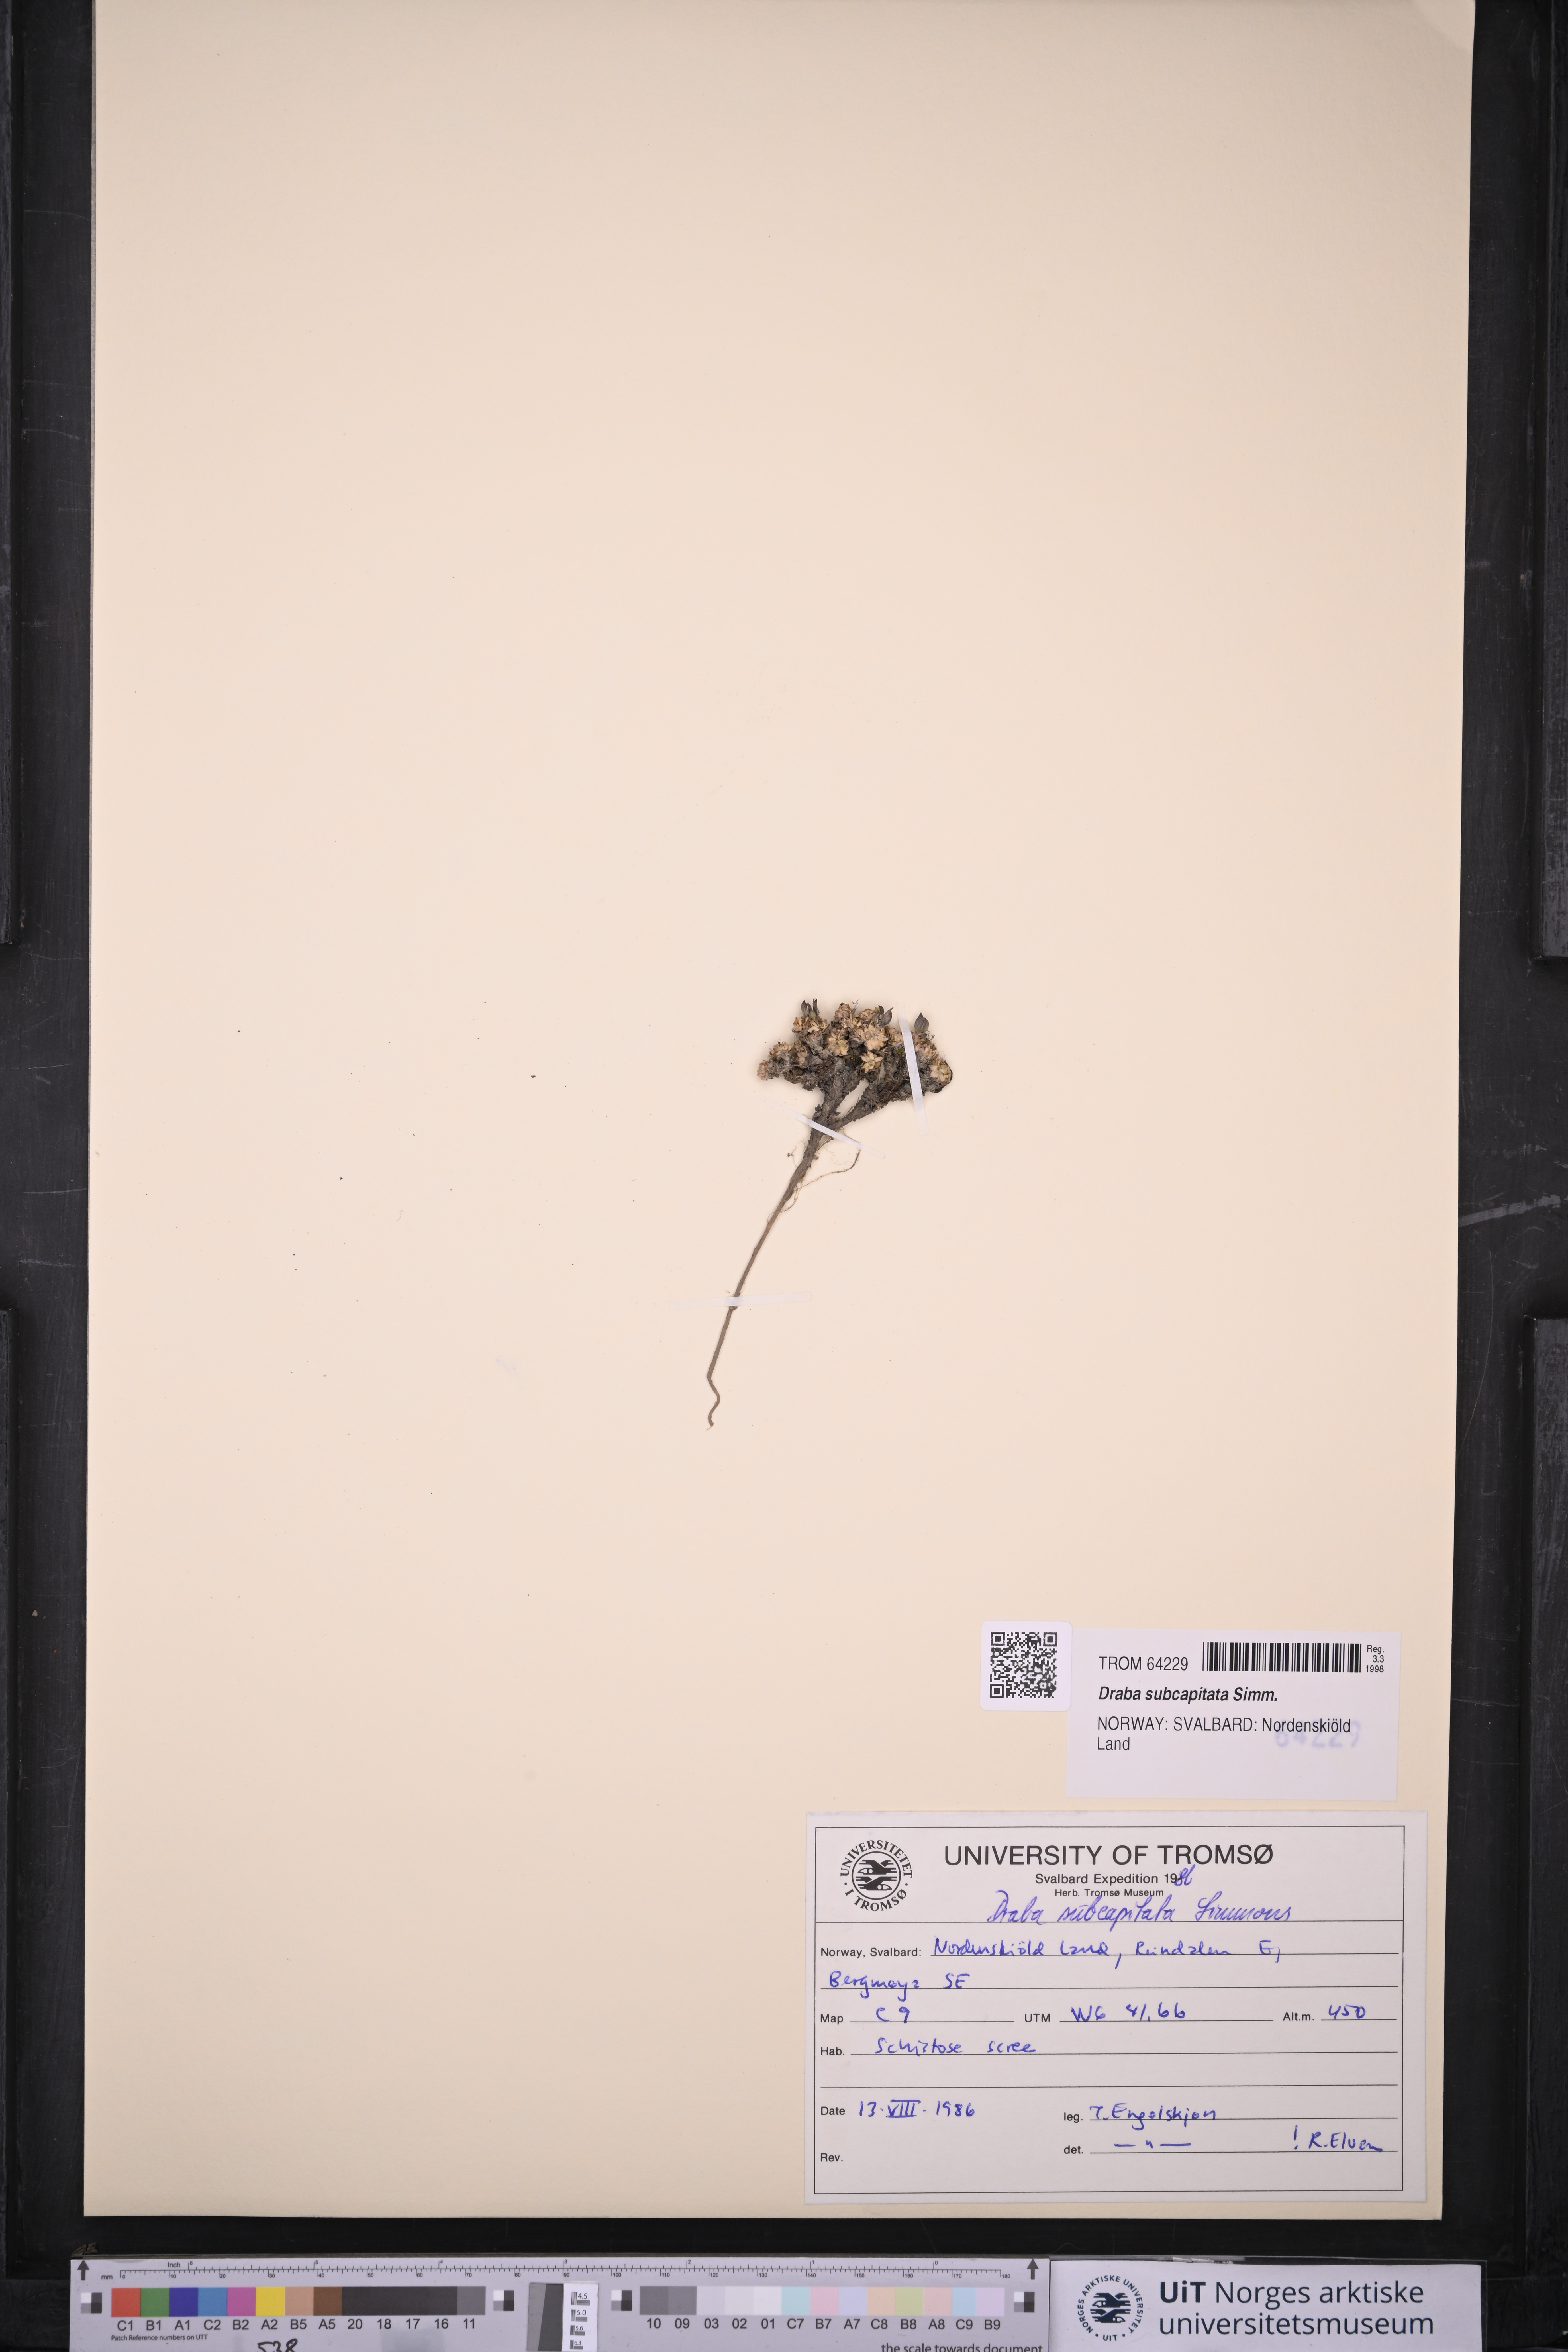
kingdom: Plantae
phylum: Tracheophyta
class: Magnoliopsida
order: Brassicales
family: Brassicaceae
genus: Draba
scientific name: Draba subcapitata
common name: Ellesmere island draba
